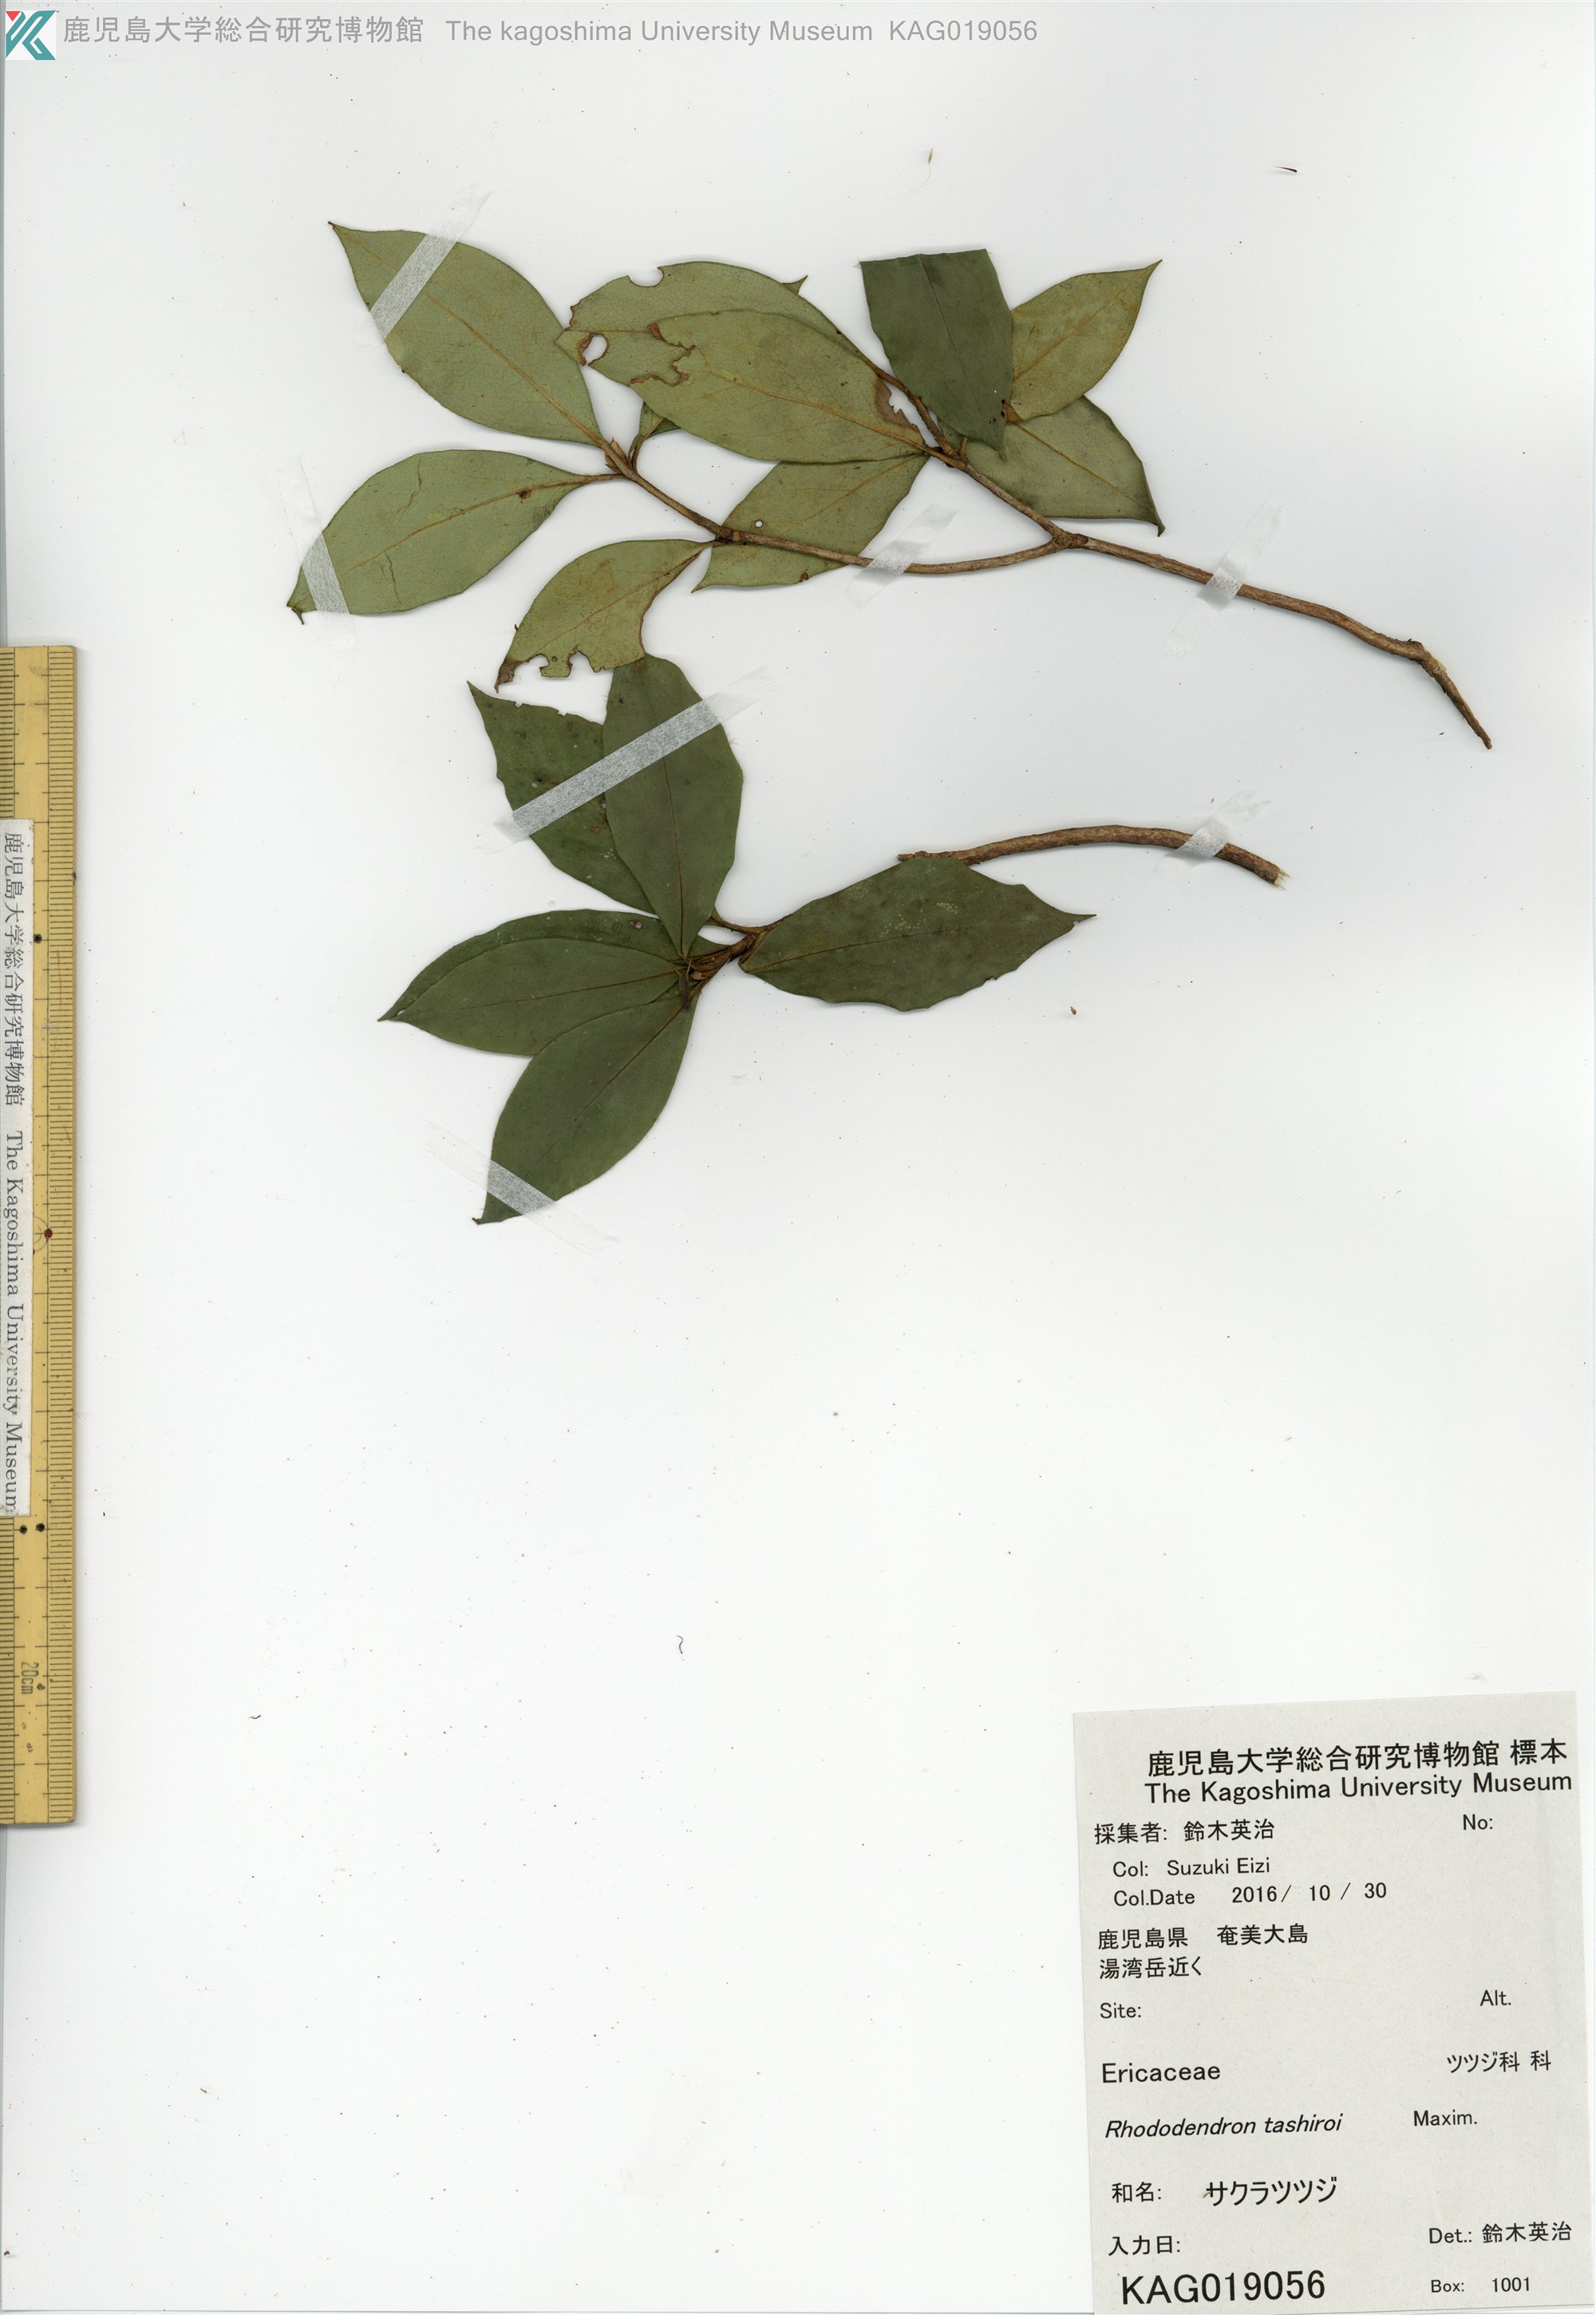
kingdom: Plantae
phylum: Tracheophyta
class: Magnoliopsida
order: Ericales
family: Ericaceae
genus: Rhododendron
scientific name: Rhododendron tashiroi
